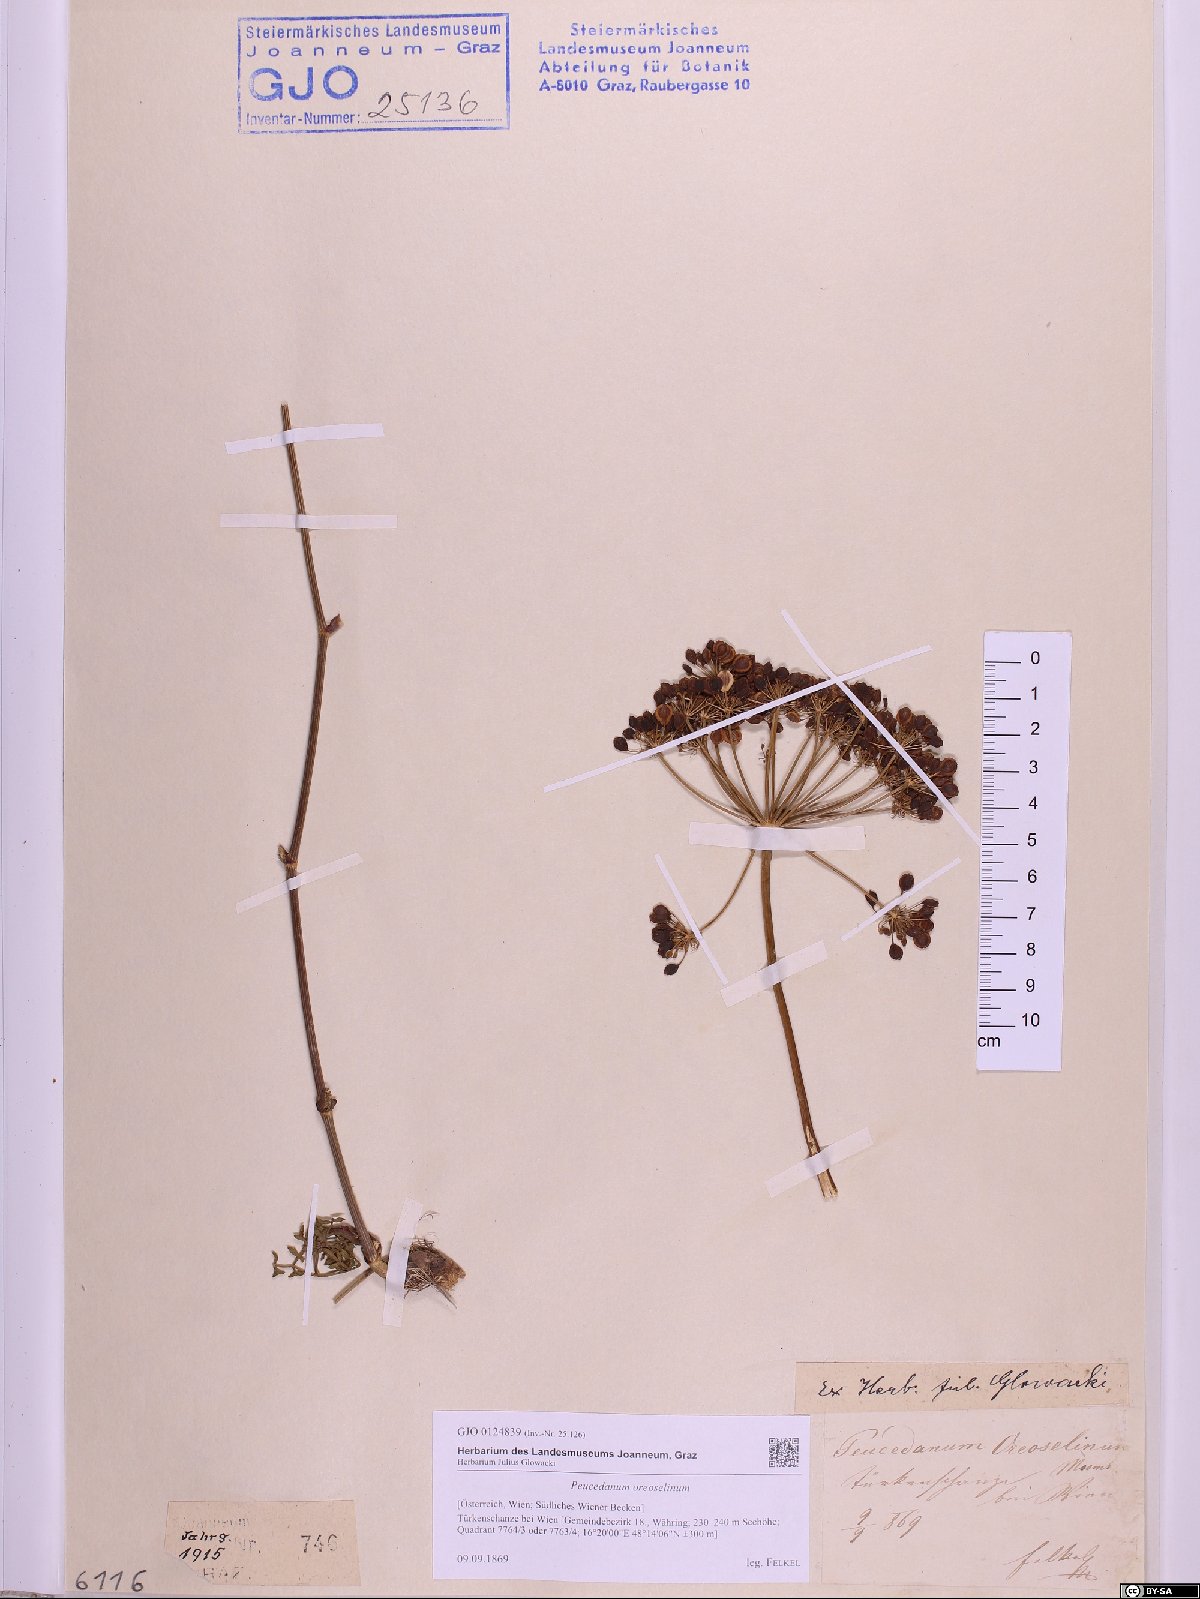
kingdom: Plantae
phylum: Tracheophyta
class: Magnoliopsida
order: Apiales
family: Apiaceae
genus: Oreoselinum
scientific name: Oreoselinum nigrum
